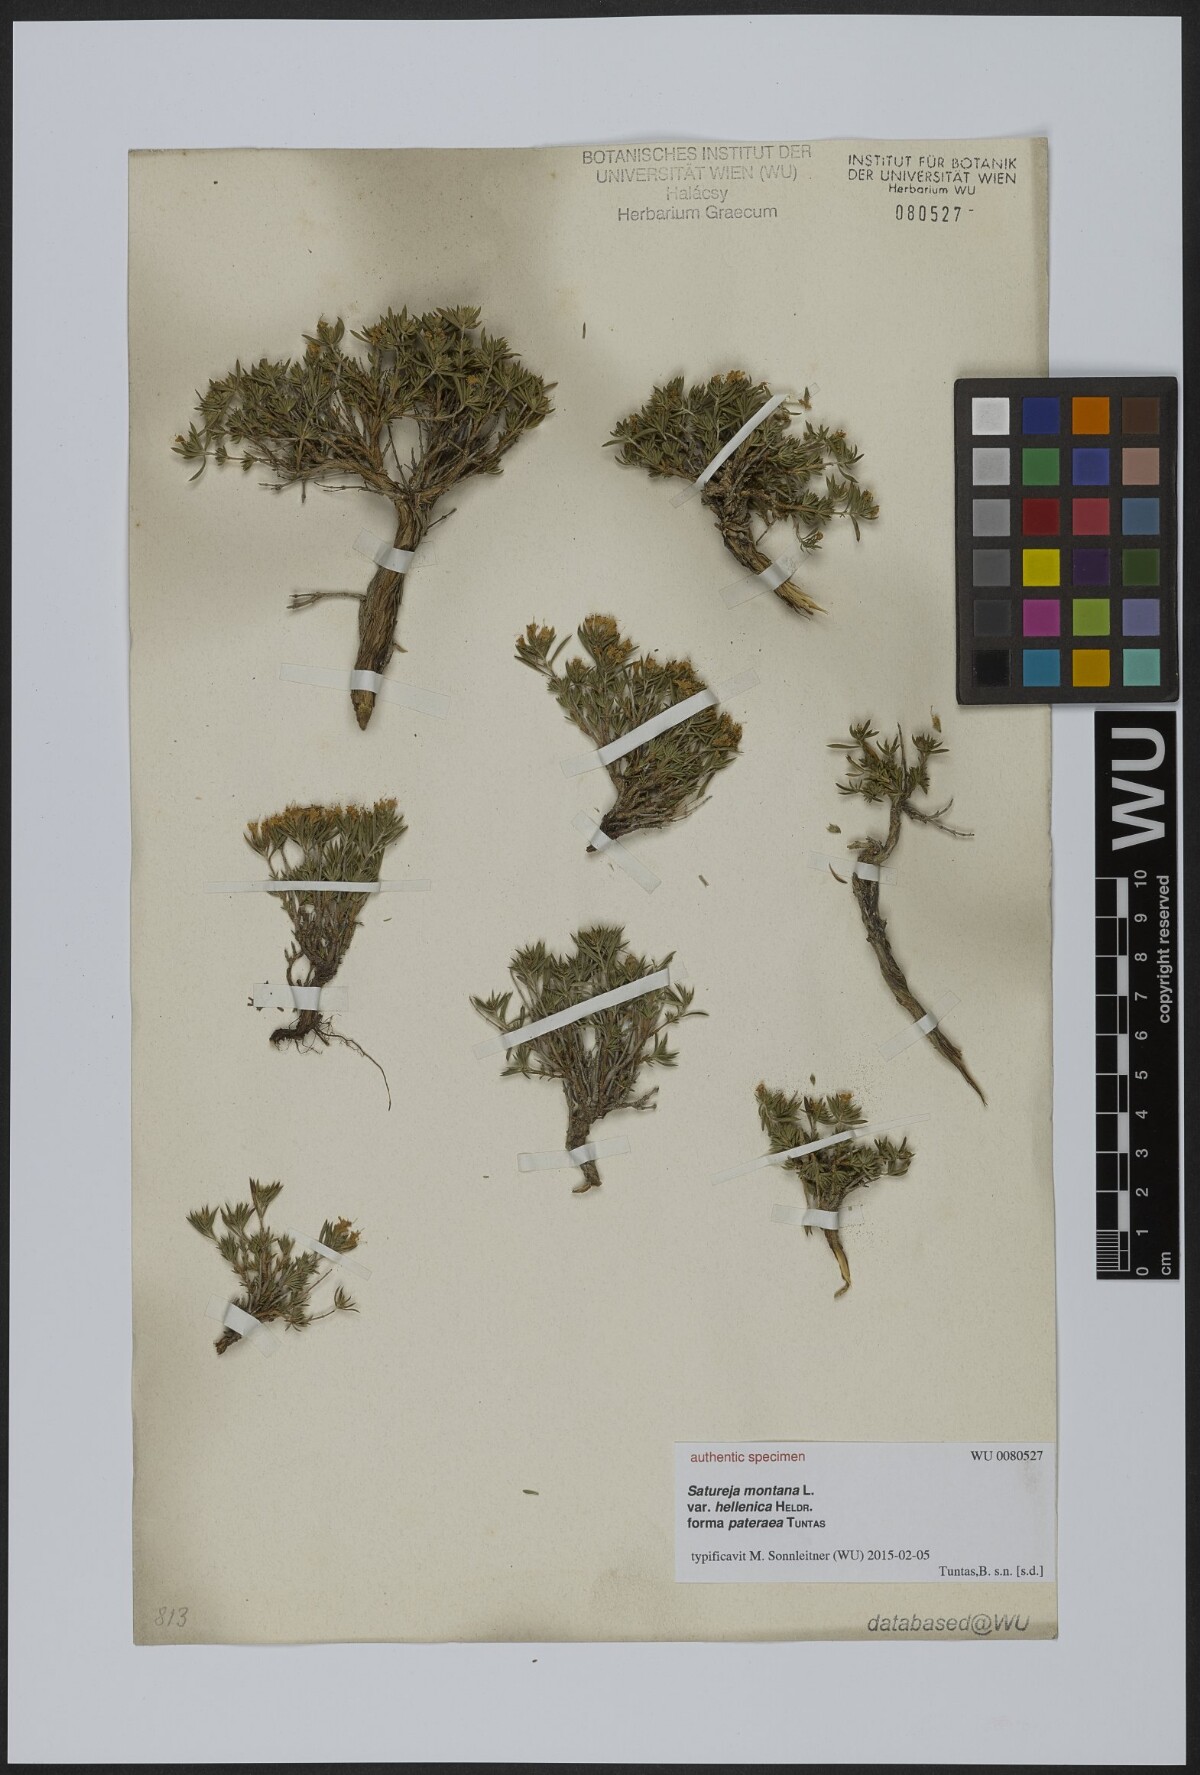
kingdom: Plantae
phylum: Tracheophyta
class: Magnoliopsida
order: Lamiales
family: Lamiaceae
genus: Satureja
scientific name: Satureja montana
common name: Winter savory
